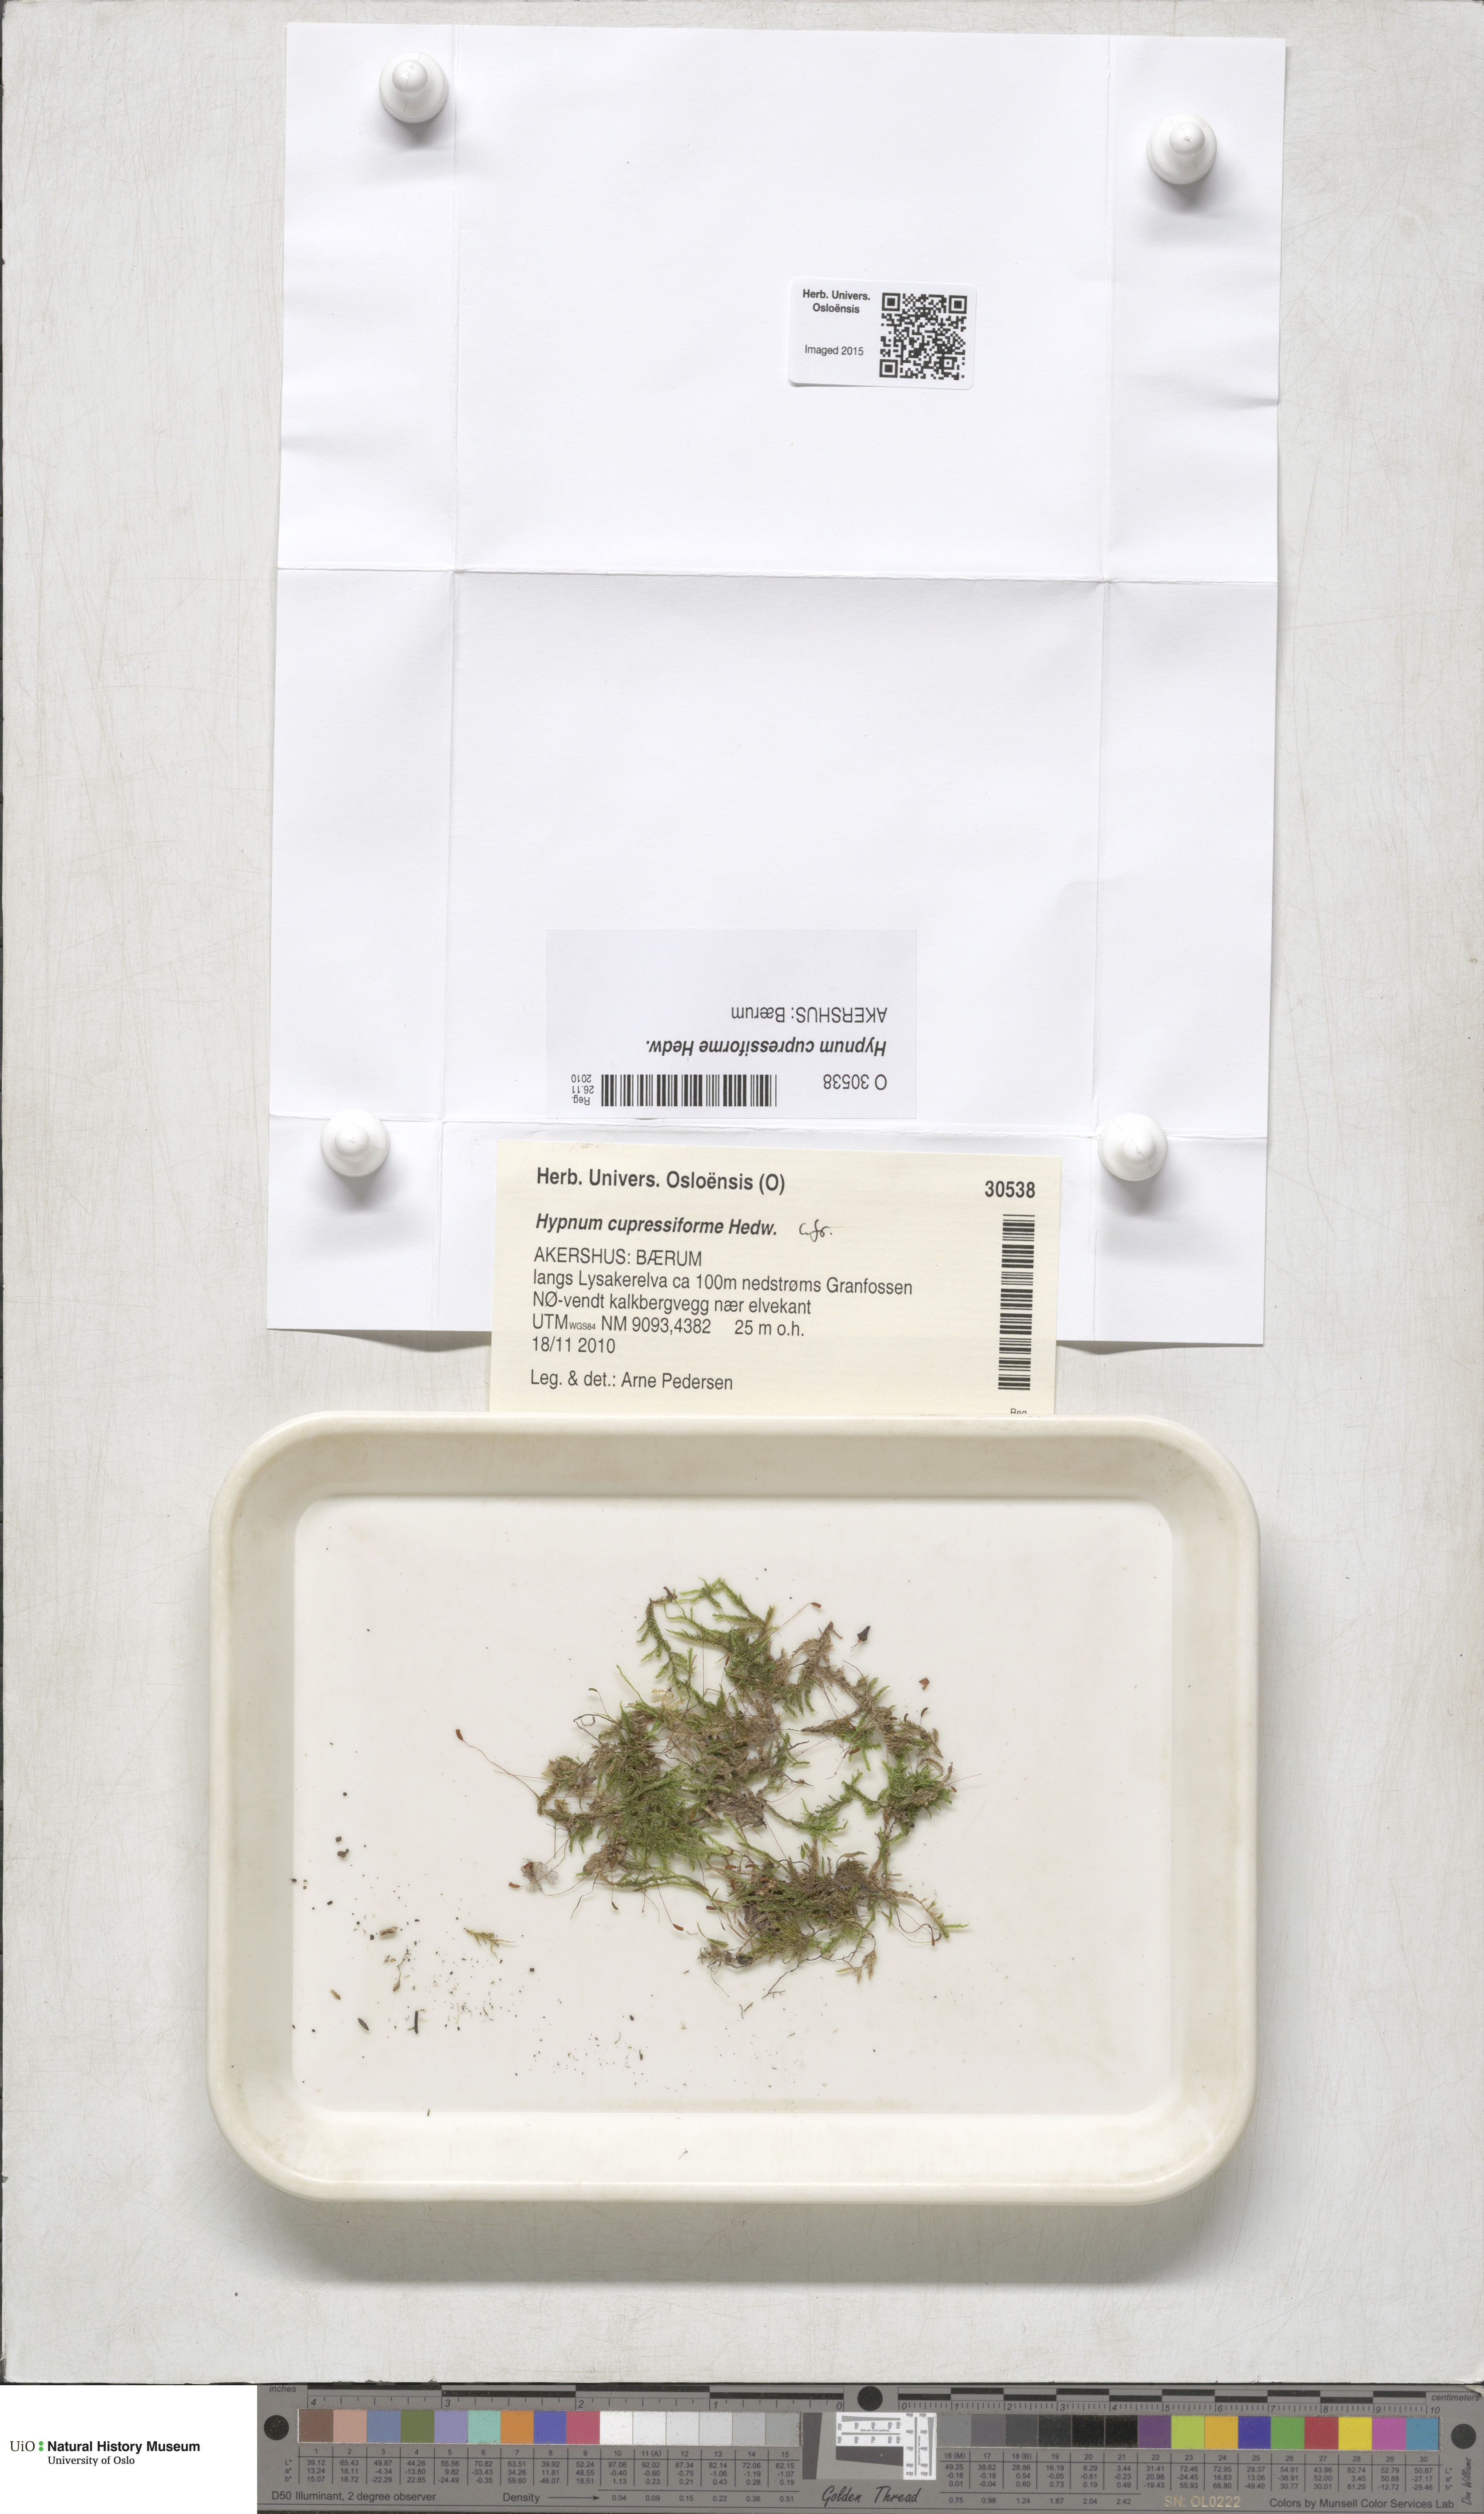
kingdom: Plantae
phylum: Bryophyta
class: Bryopsida
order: Hypnales
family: Hypnaceae
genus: Hypnum
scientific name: Hypnum cupressiforme
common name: Cypress-leaved plait-moss
